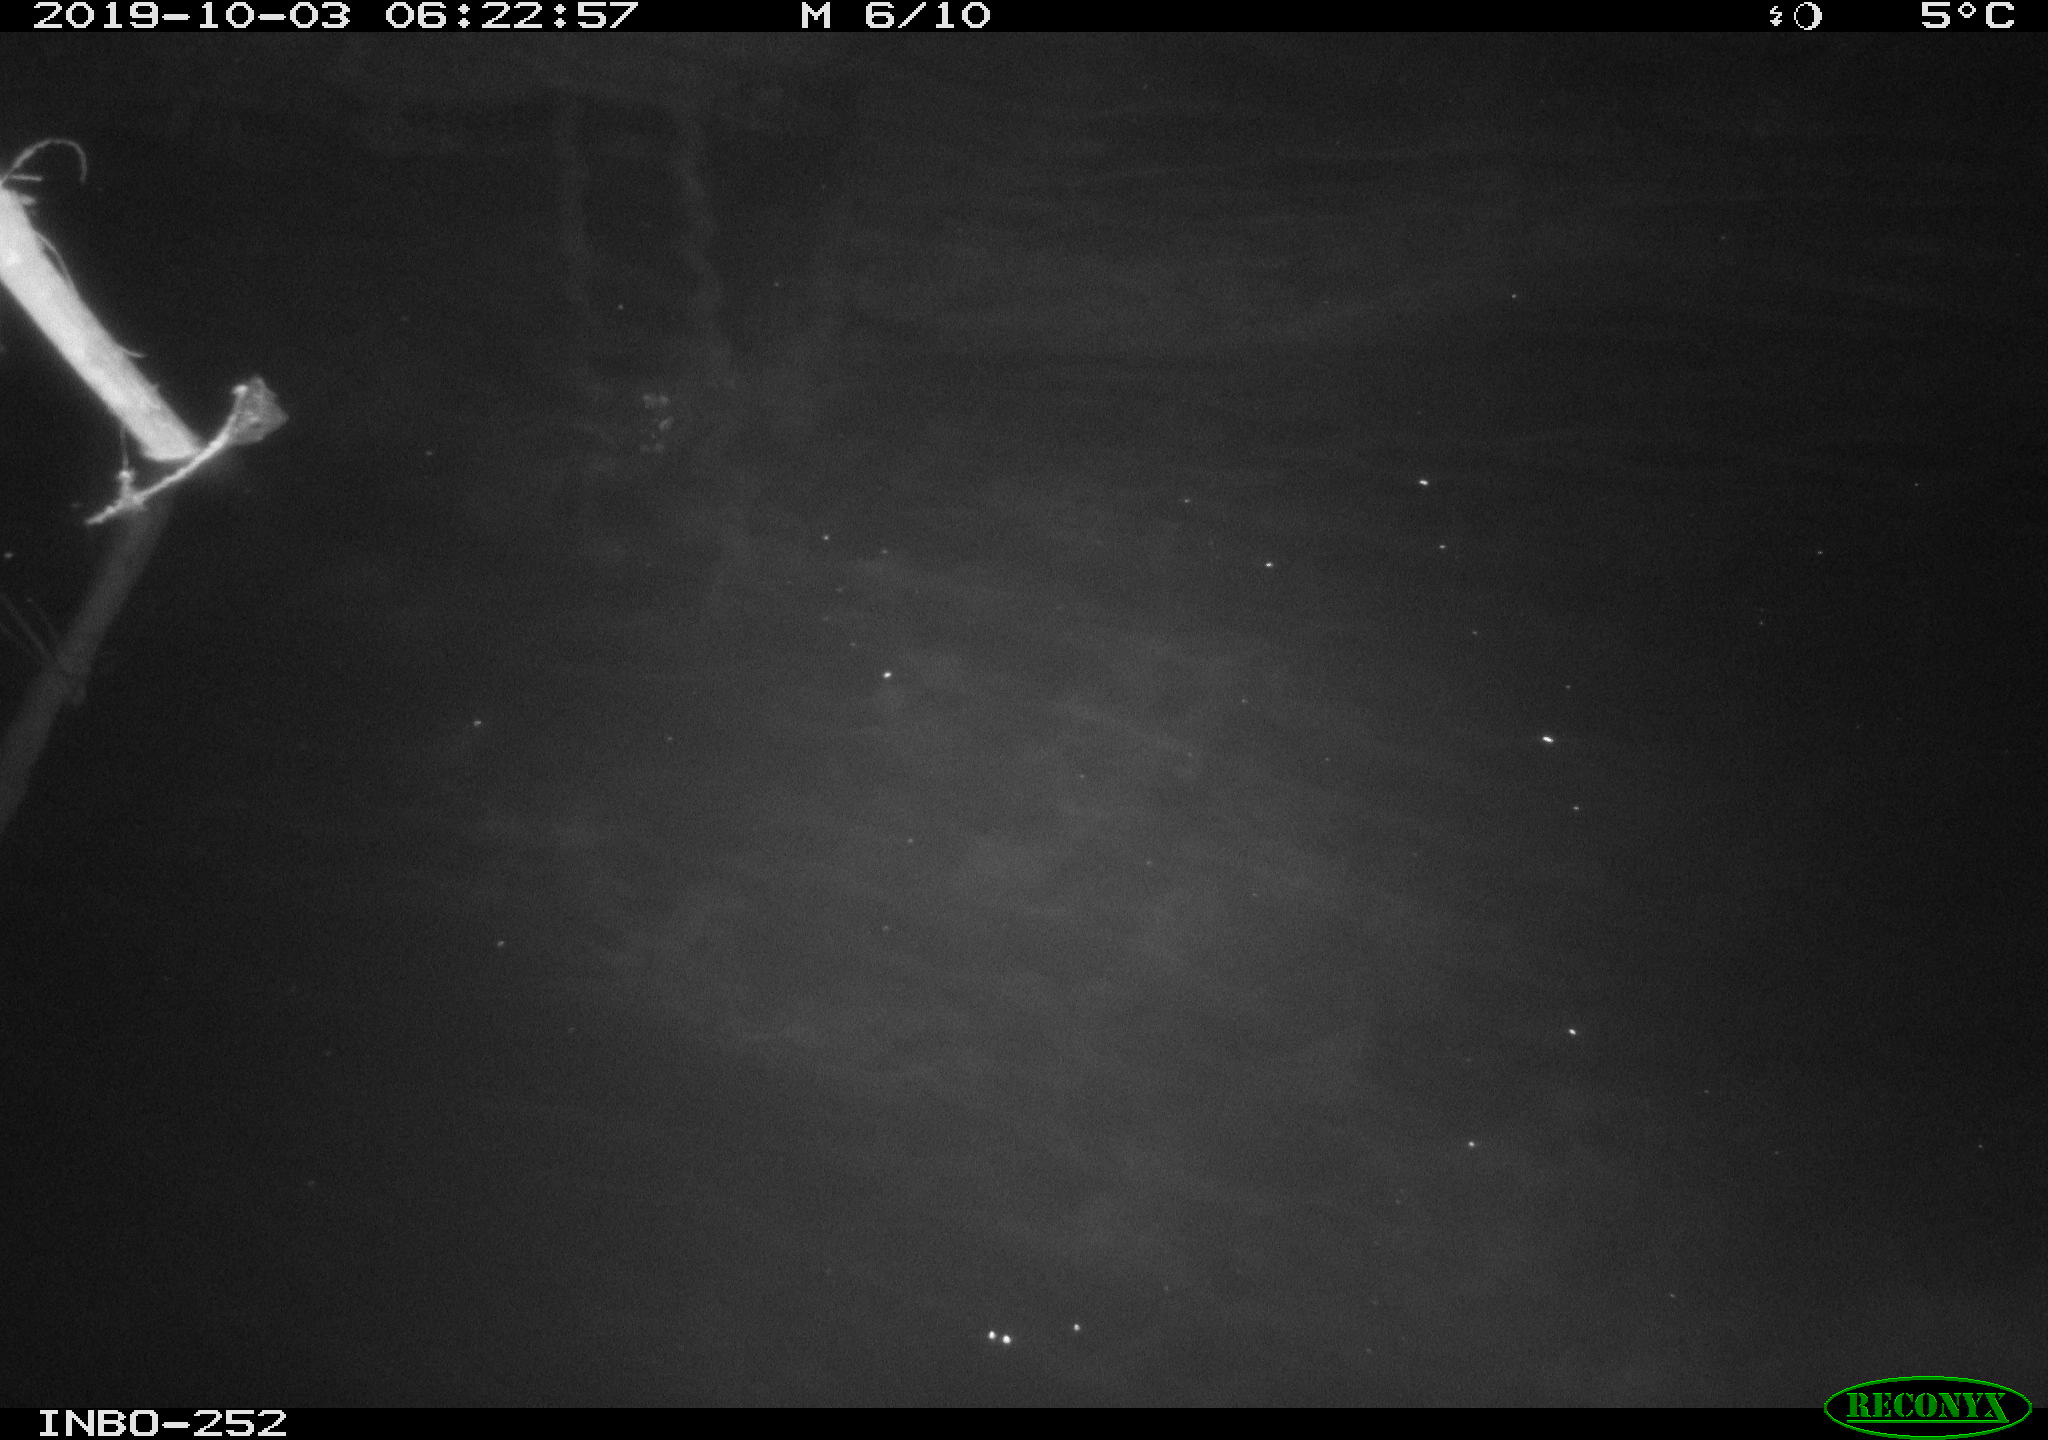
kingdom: Animalia
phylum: Chordata
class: Aves
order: Anseriformes
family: Anatidae
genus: Anas
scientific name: Anas platyrhynchos
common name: Mallard
